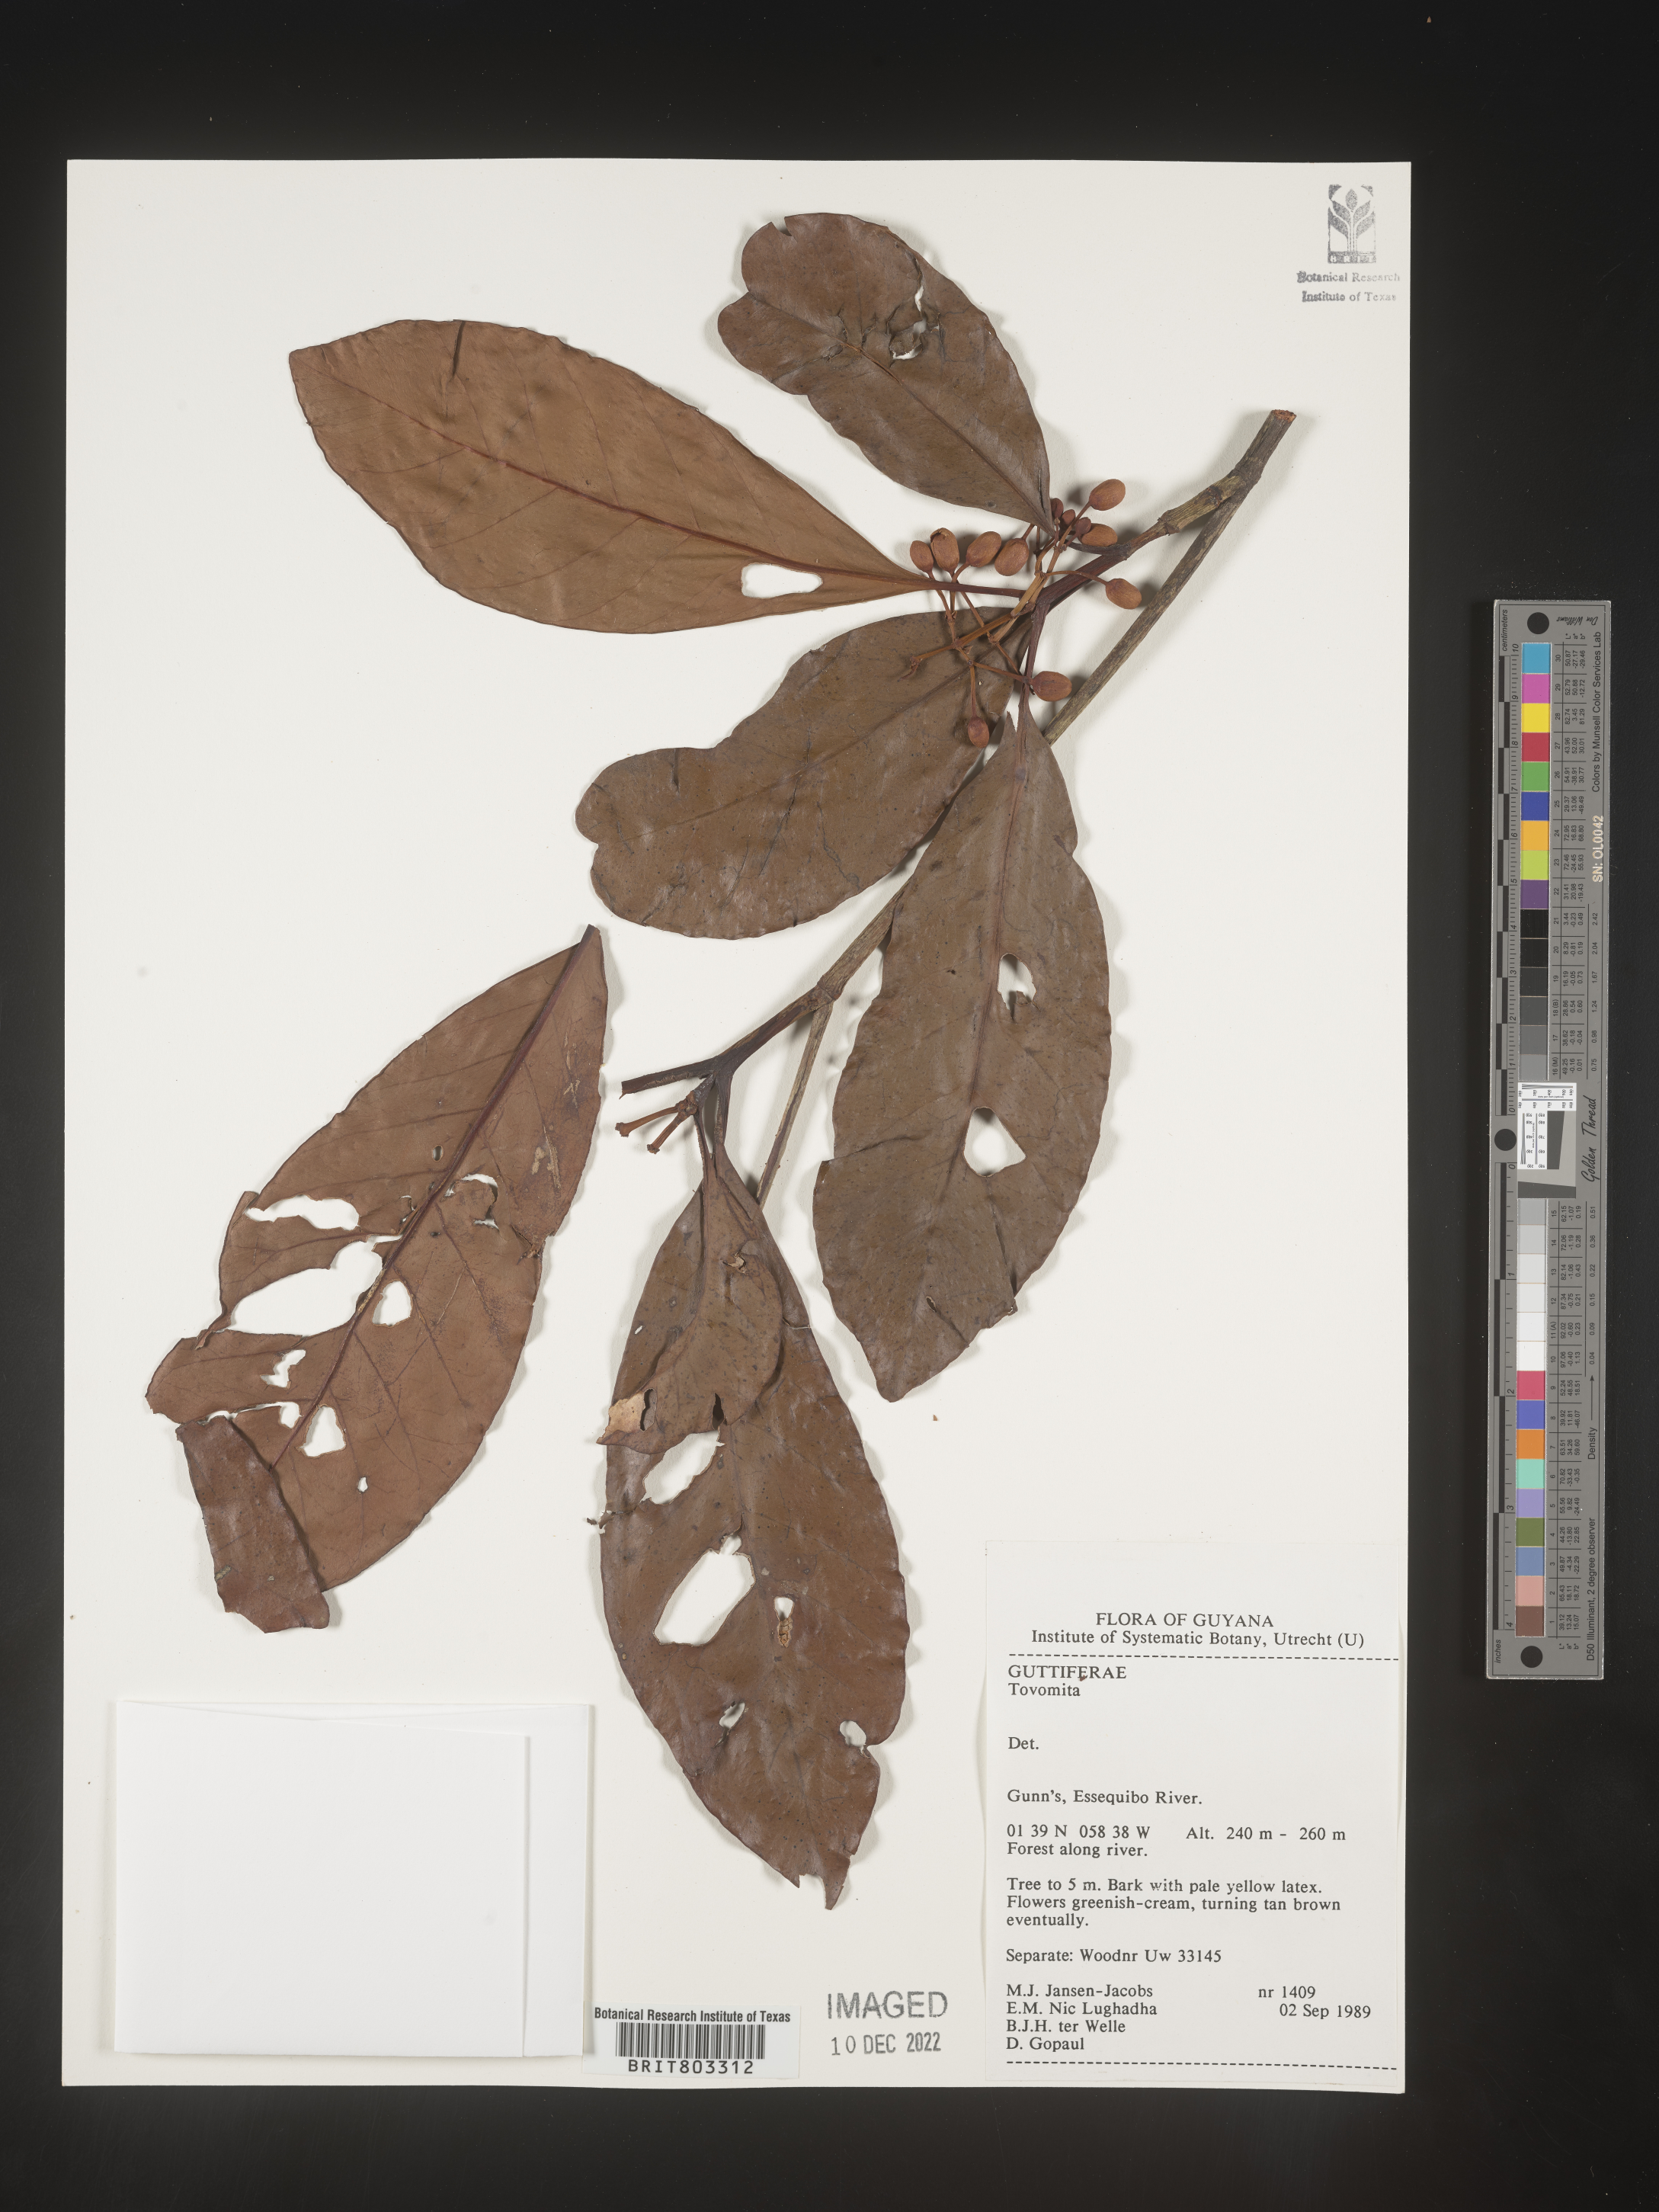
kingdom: Plantae
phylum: Tracheophyta
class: Magnoliopsida
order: Malpighiales
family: Clusiaceae
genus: Tovomita
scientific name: Tovomita
